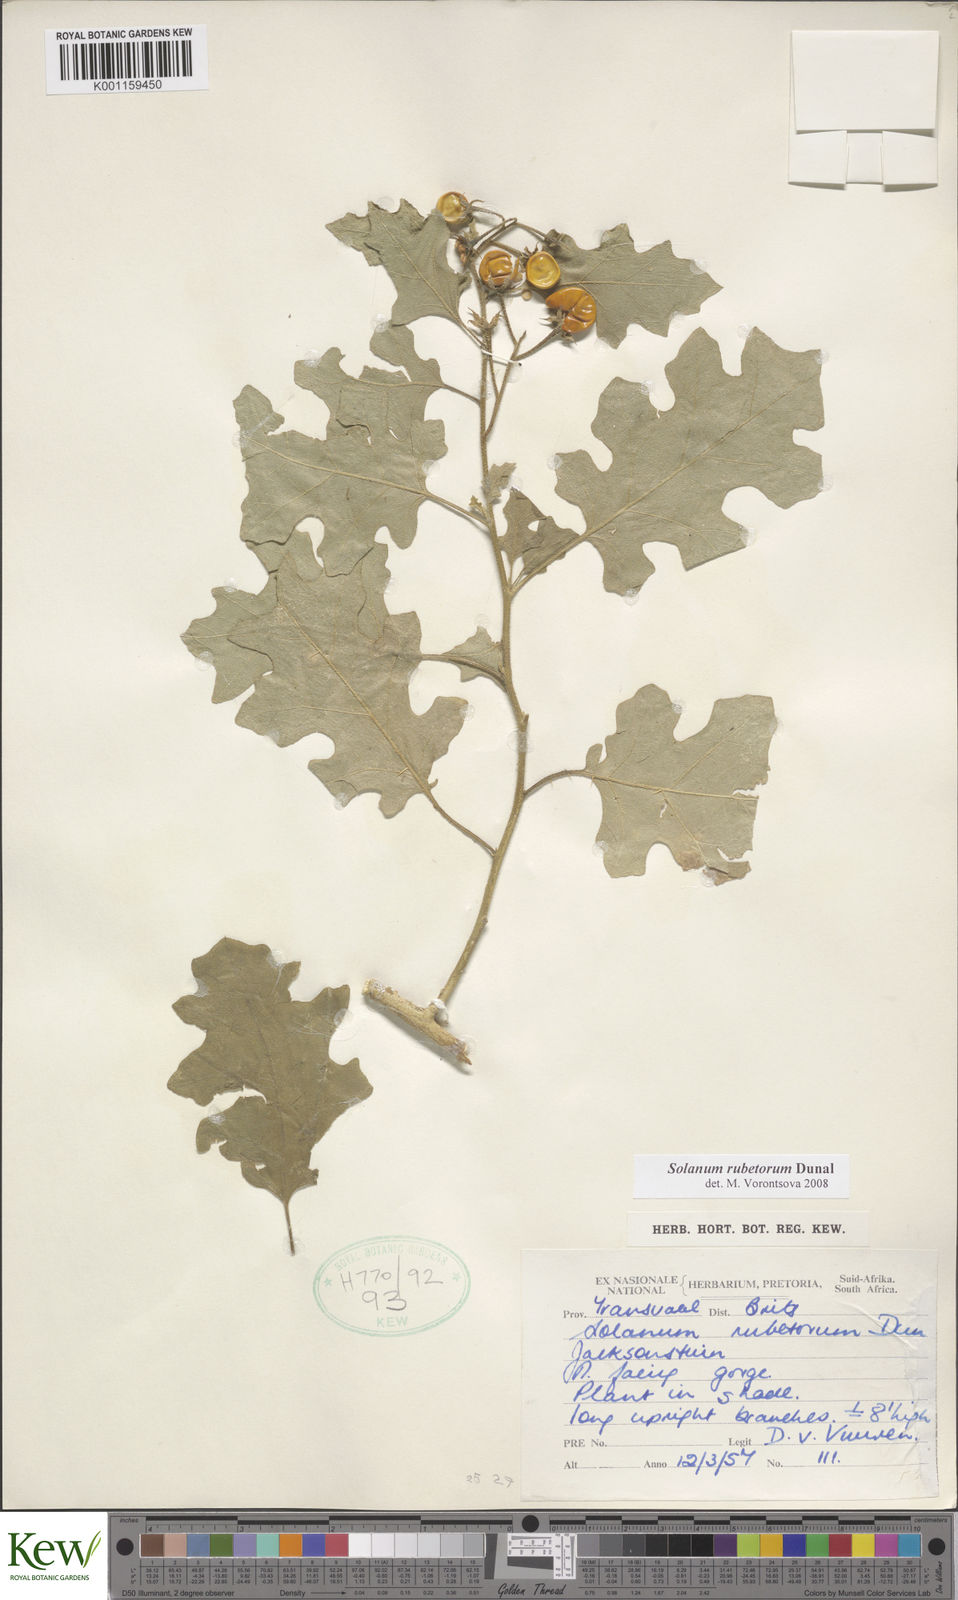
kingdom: Plantae
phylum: Tracheophyta
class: Magnoliopsida
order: Solanales
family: Solanaceae
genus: Solanum
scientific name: Solanum rubetorum
